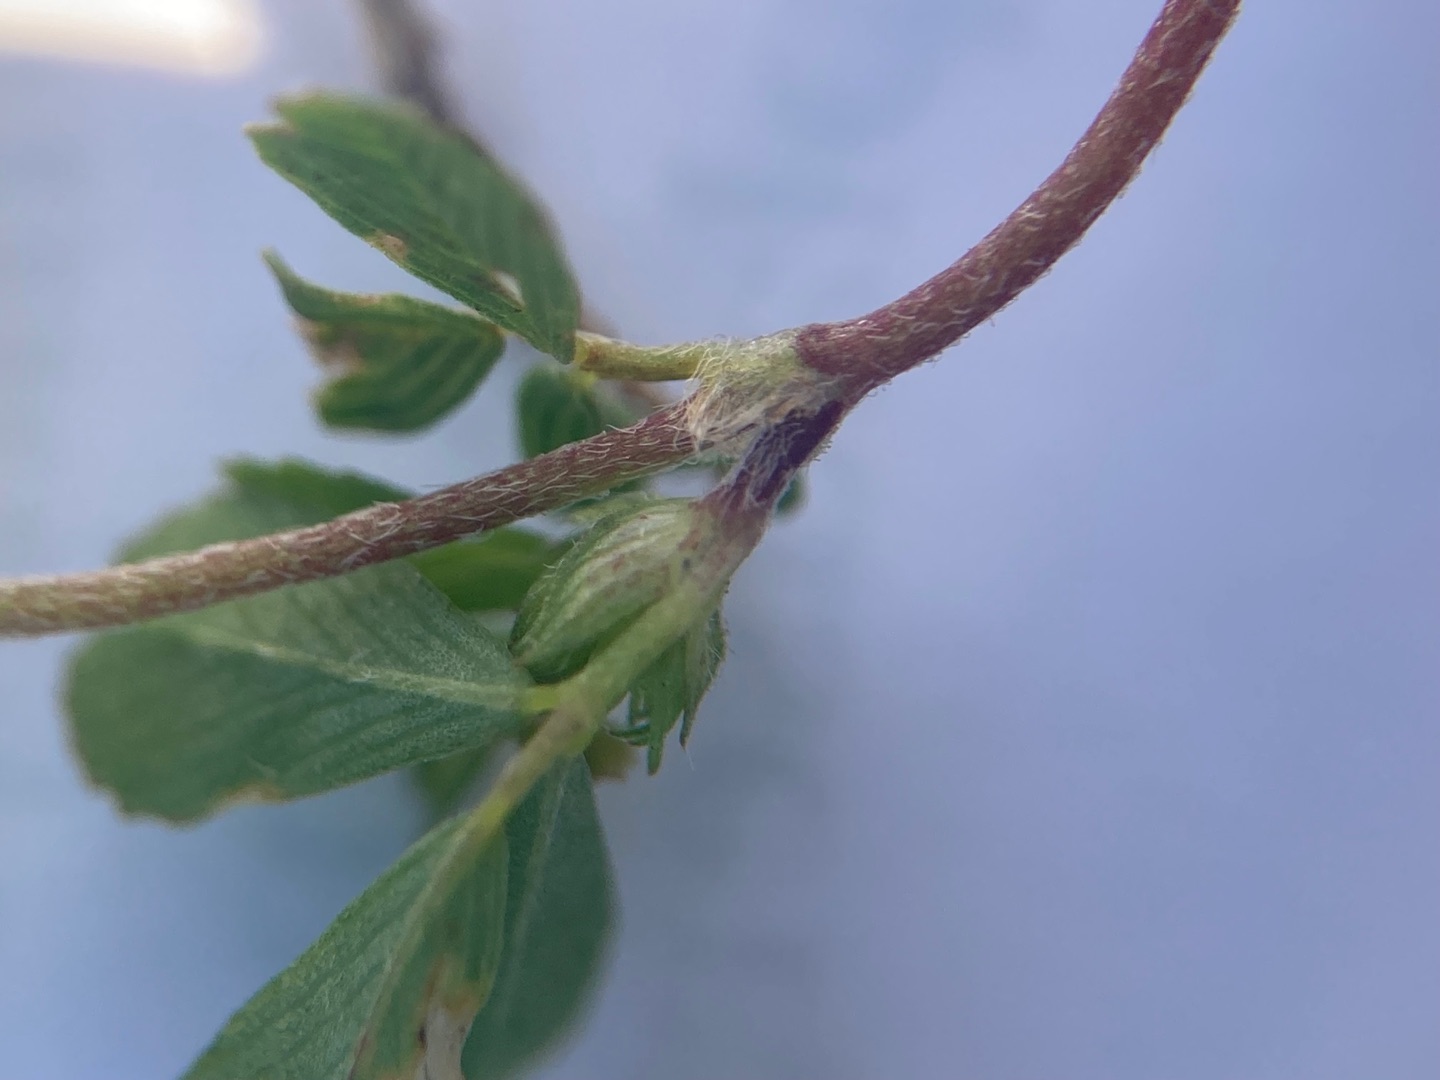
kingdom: Plantae
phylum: Tracheophyta
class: Magnoliopsida
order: Fabales
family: Fabaceae
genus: Trifolium
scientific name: Trifolium campestre
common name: Gul kløver
